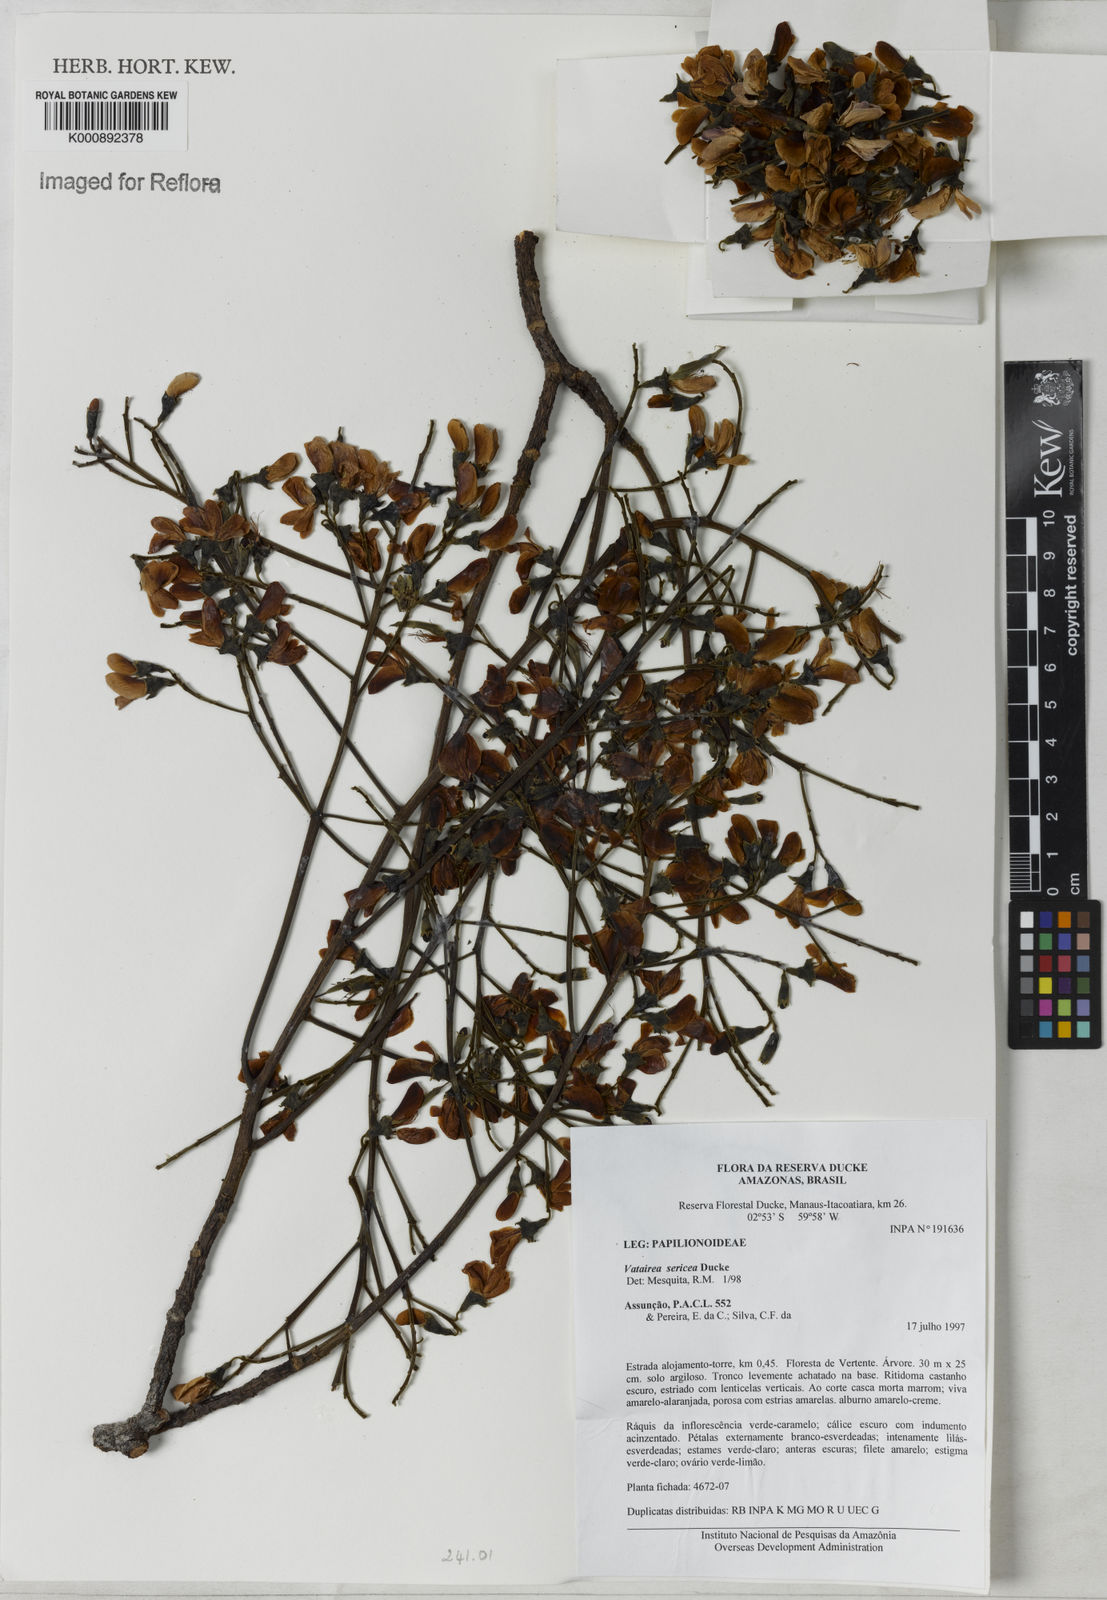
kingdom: Plantae
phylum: Tracheophyta
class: Magnoliopsida
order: Fabales
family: Fabaceae
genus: Vatairea
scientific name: Vatairea sericea
